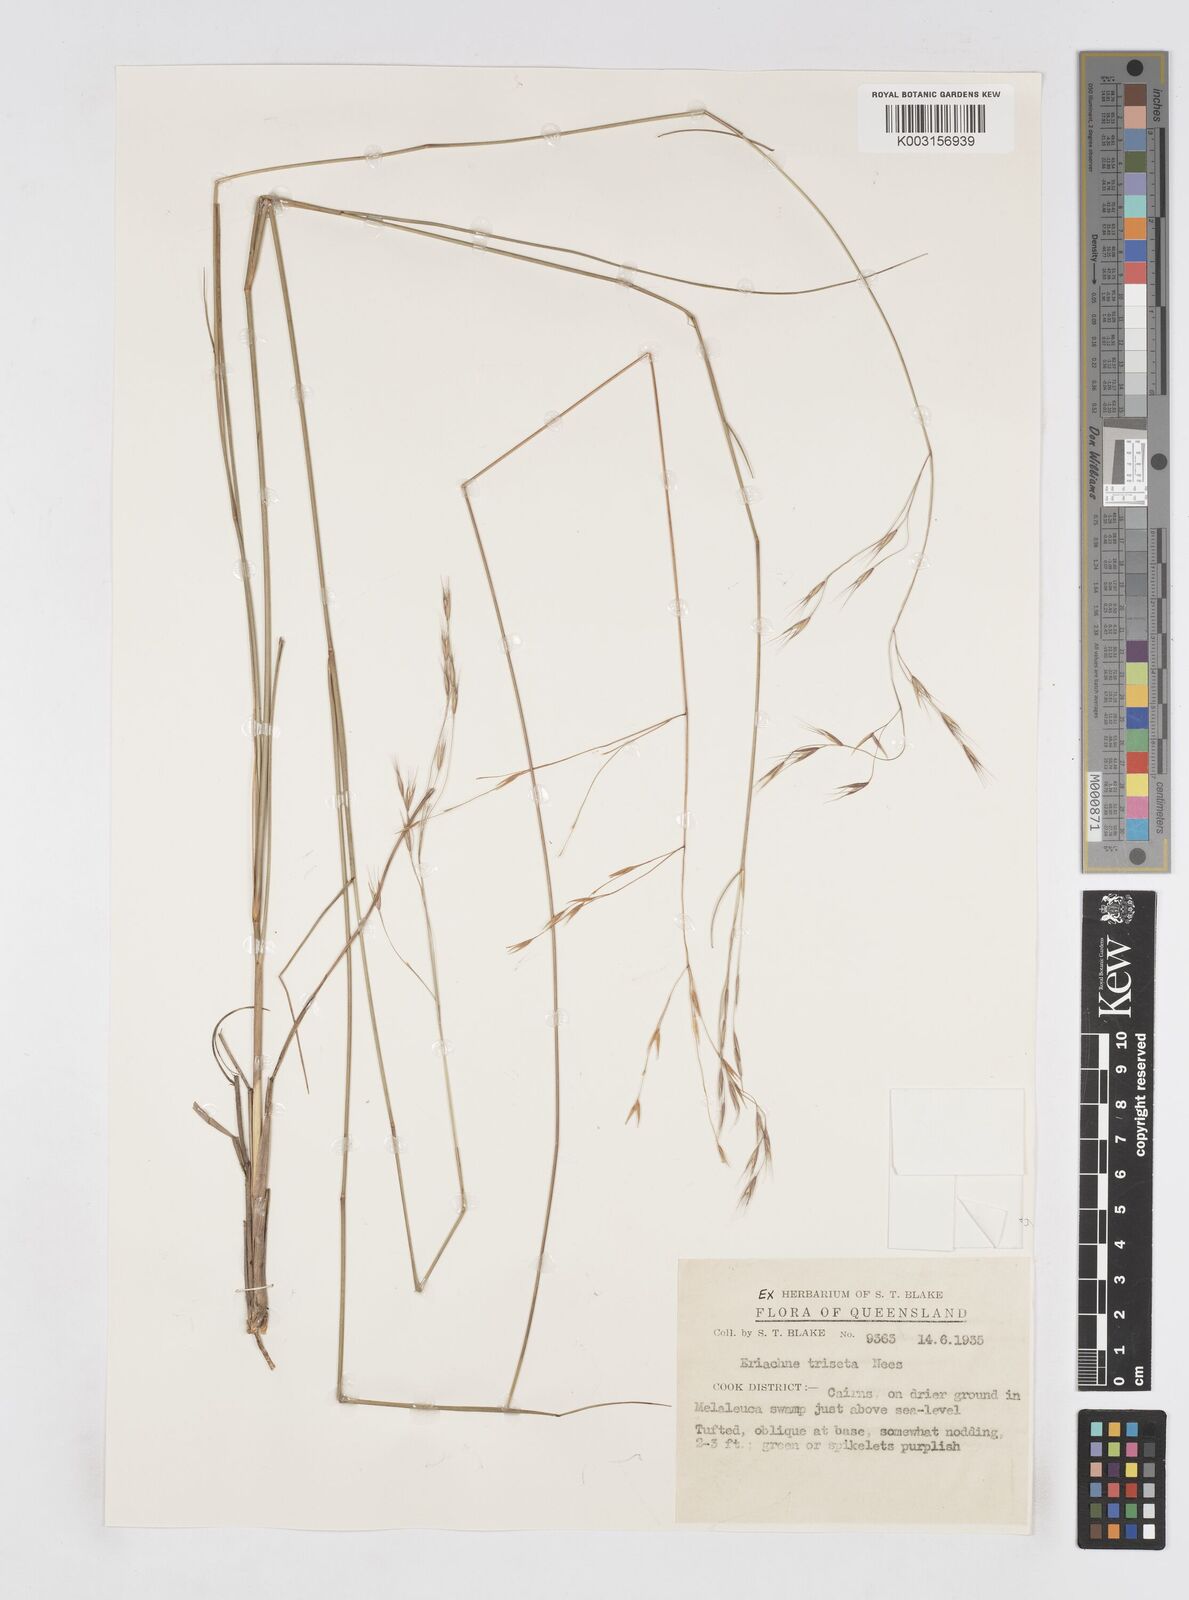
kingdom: Plantae
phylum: Tracheophyta
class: Liliopsida
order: Poales
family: Poaceae
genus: Eriachne
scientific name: Eriachne triseta
